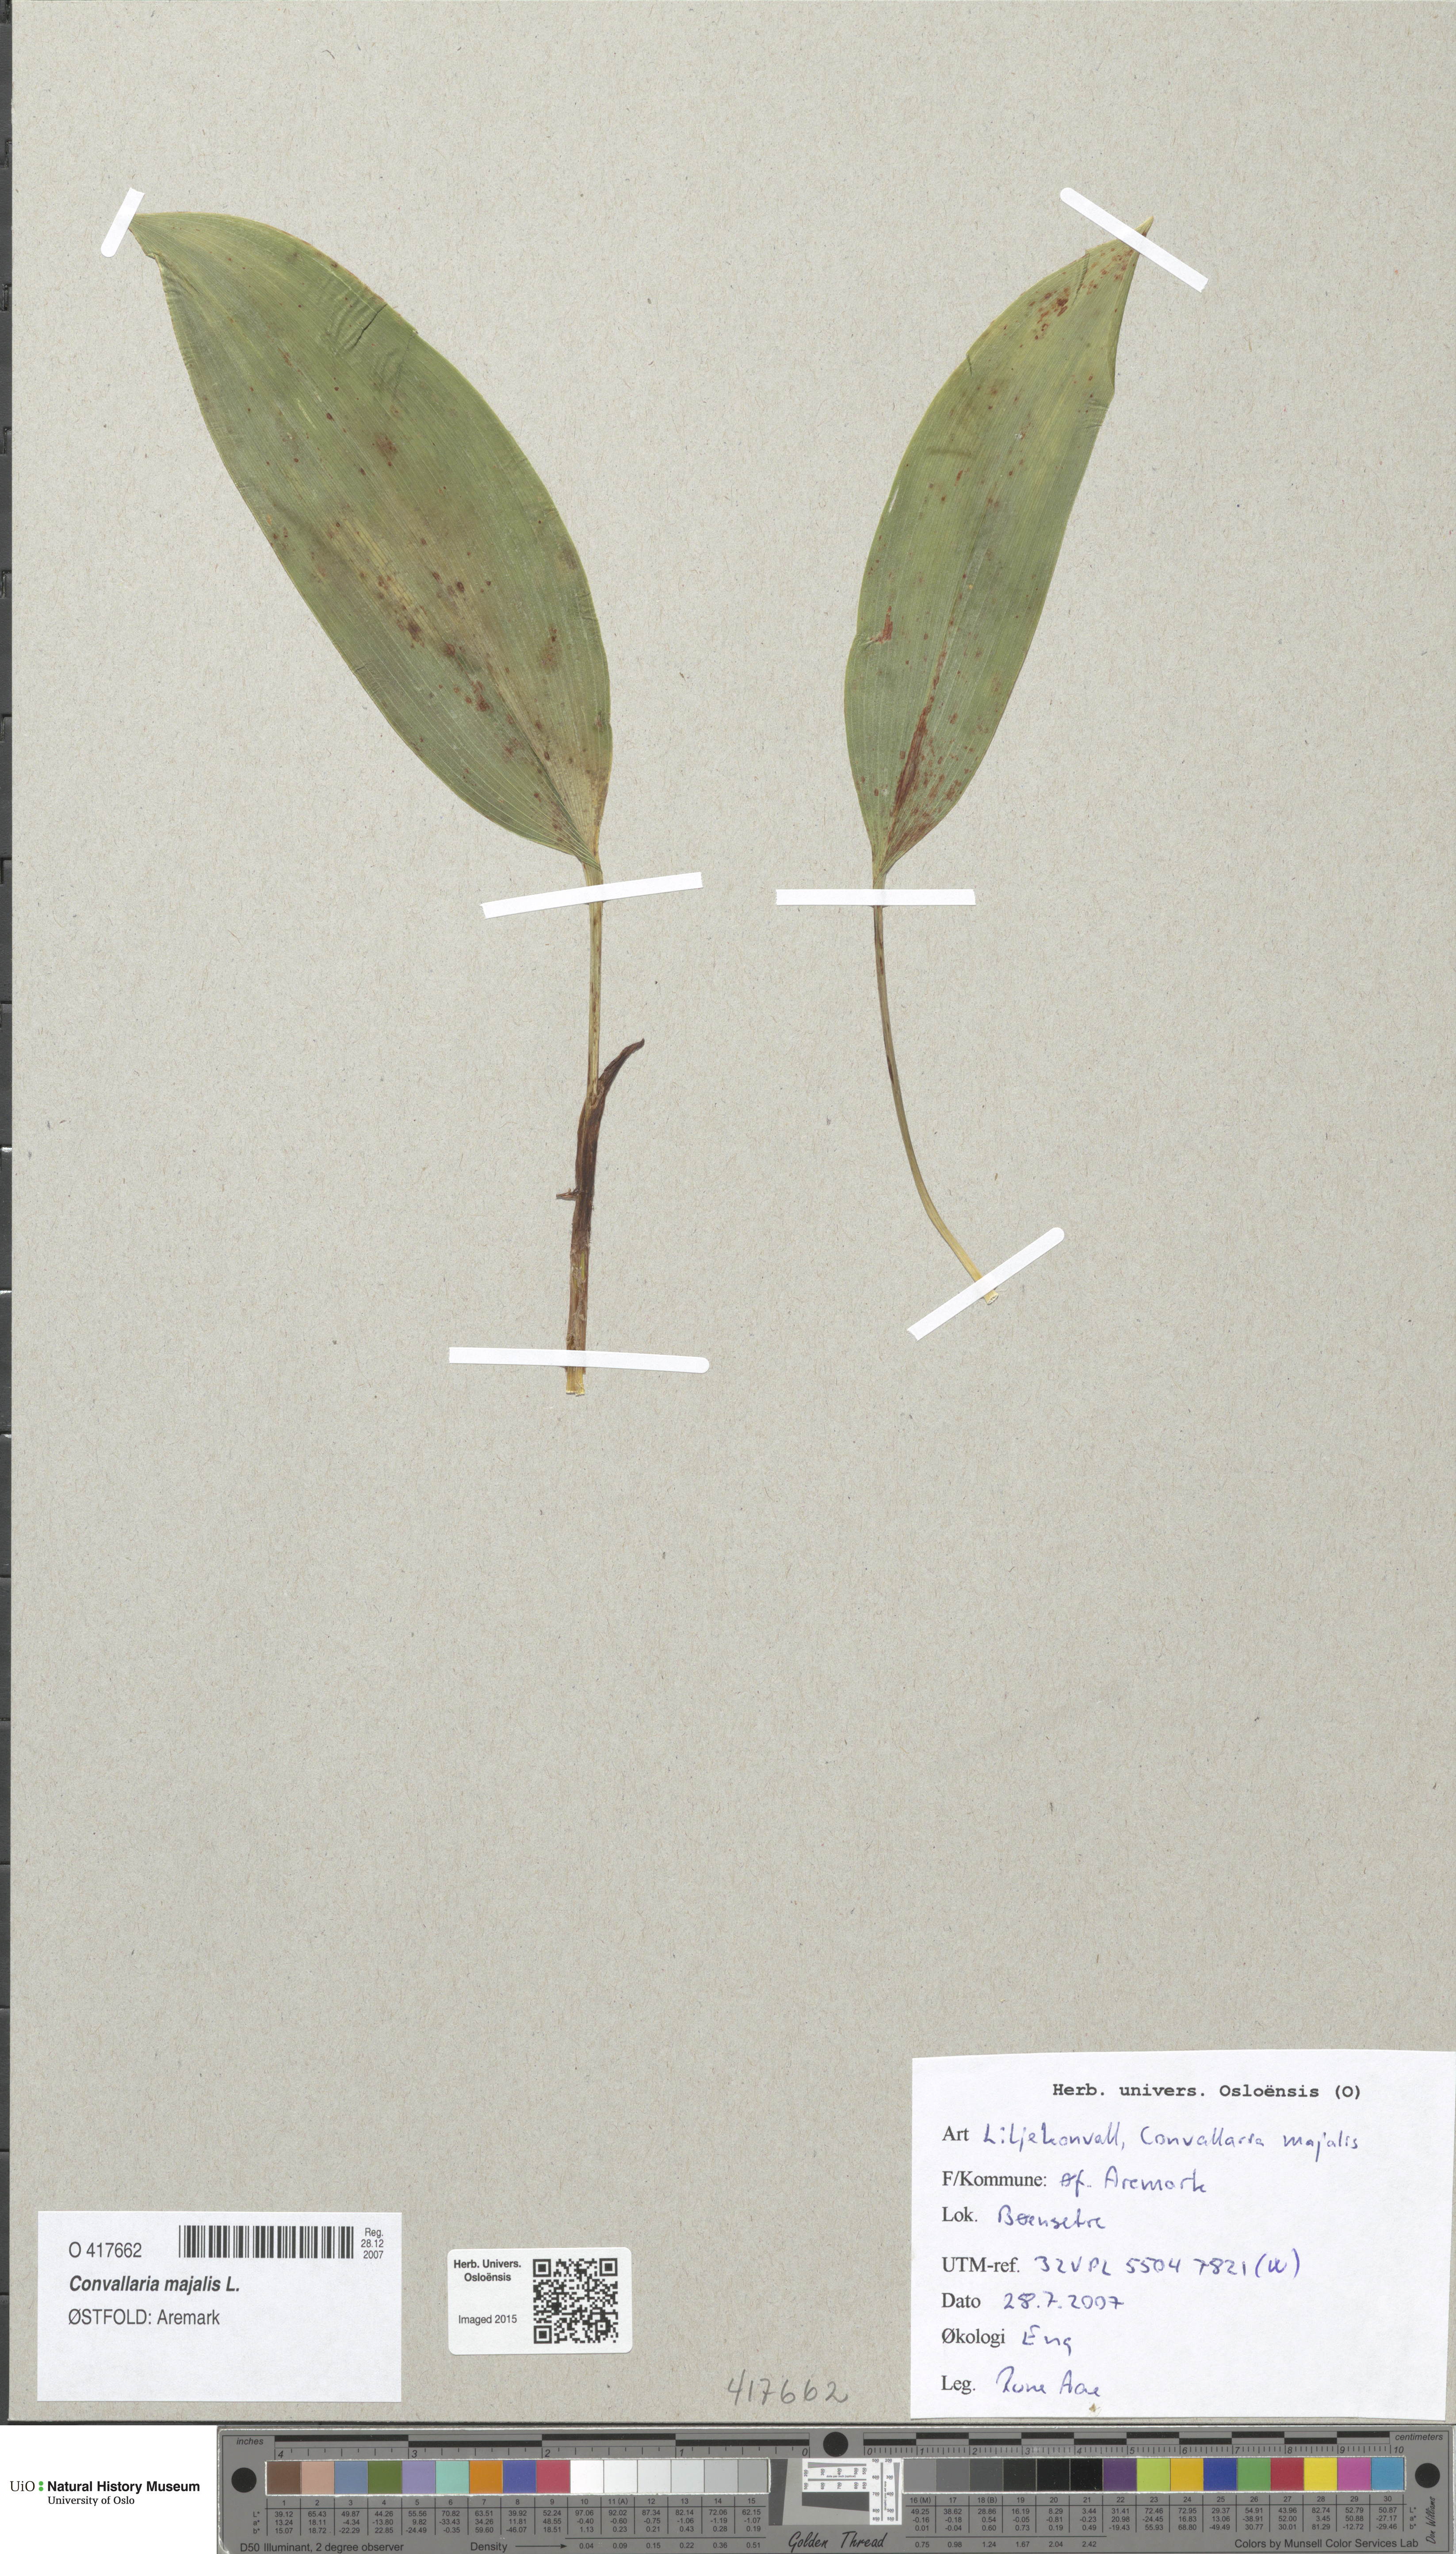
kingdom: Plantae
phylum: Tracheophyta
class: Liliopsida
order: Asparagales
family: Asparagaceae
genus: Convallaria
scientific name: Convallaria majalis
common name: Lily-of-the-valley
